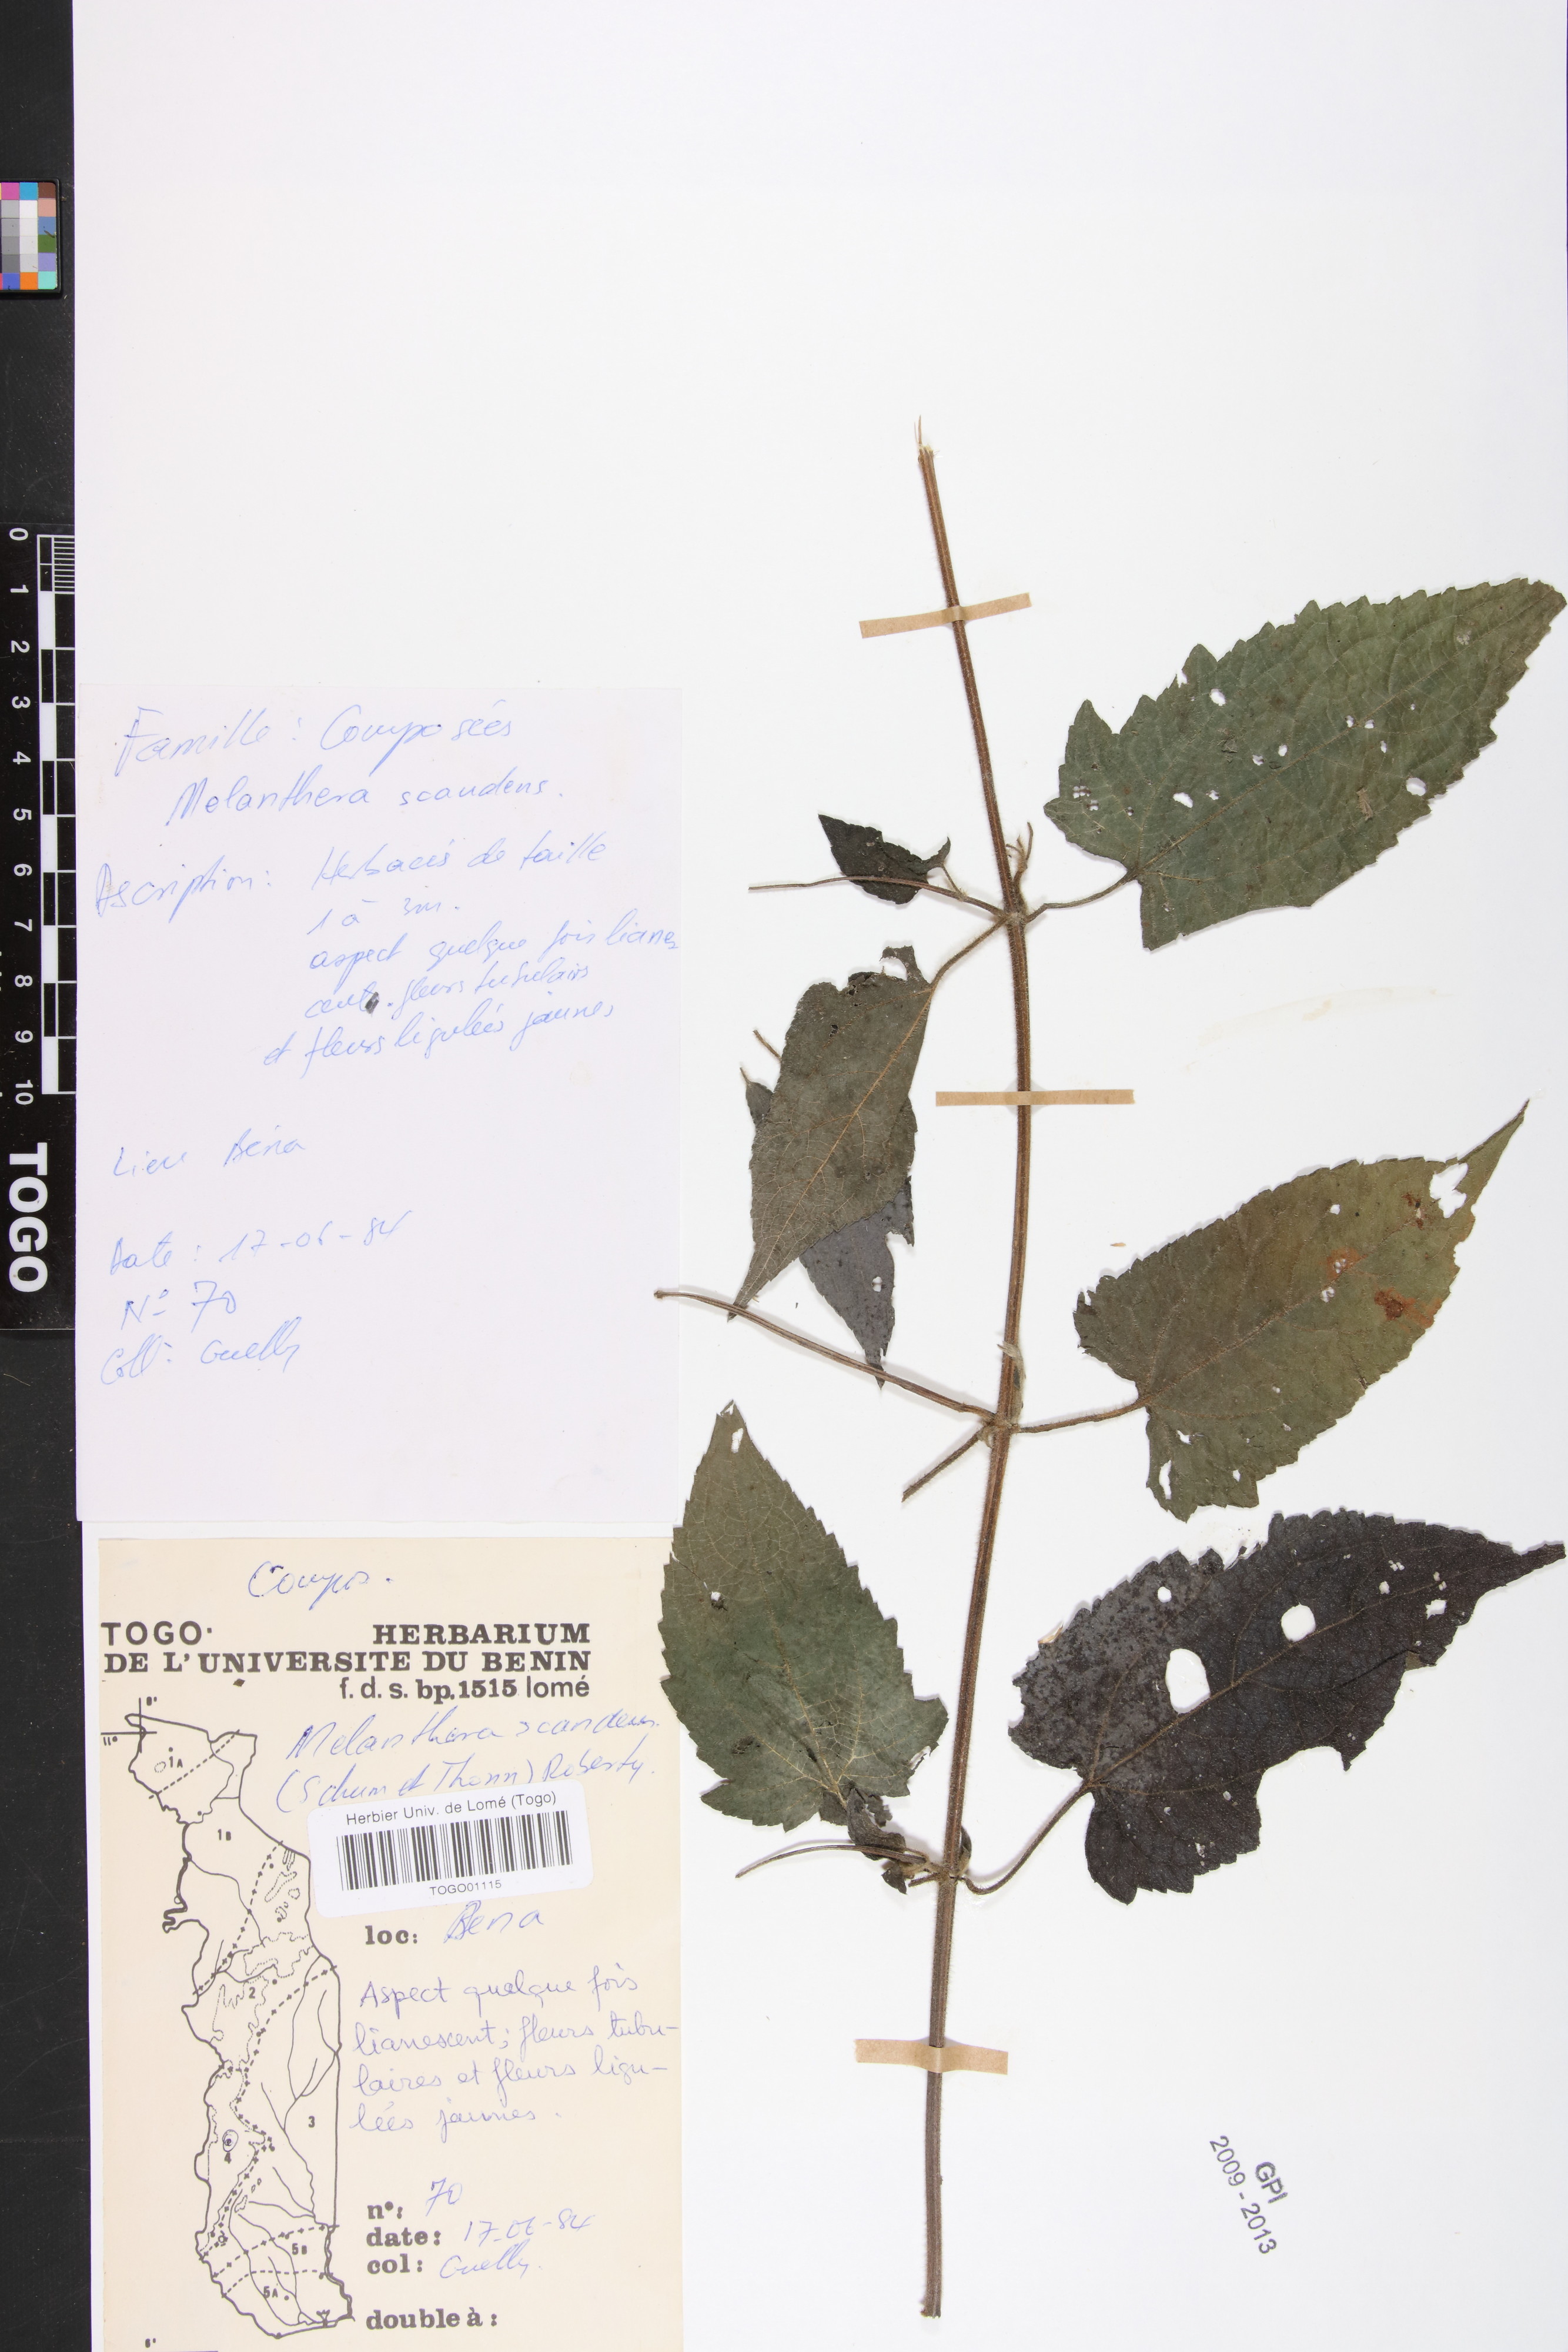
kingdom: Plantae
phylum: Tracheophyta
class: Magnoliopsida
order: Asterales
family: Asteraceae
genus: Melanthera
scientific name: Melanthera scandens
